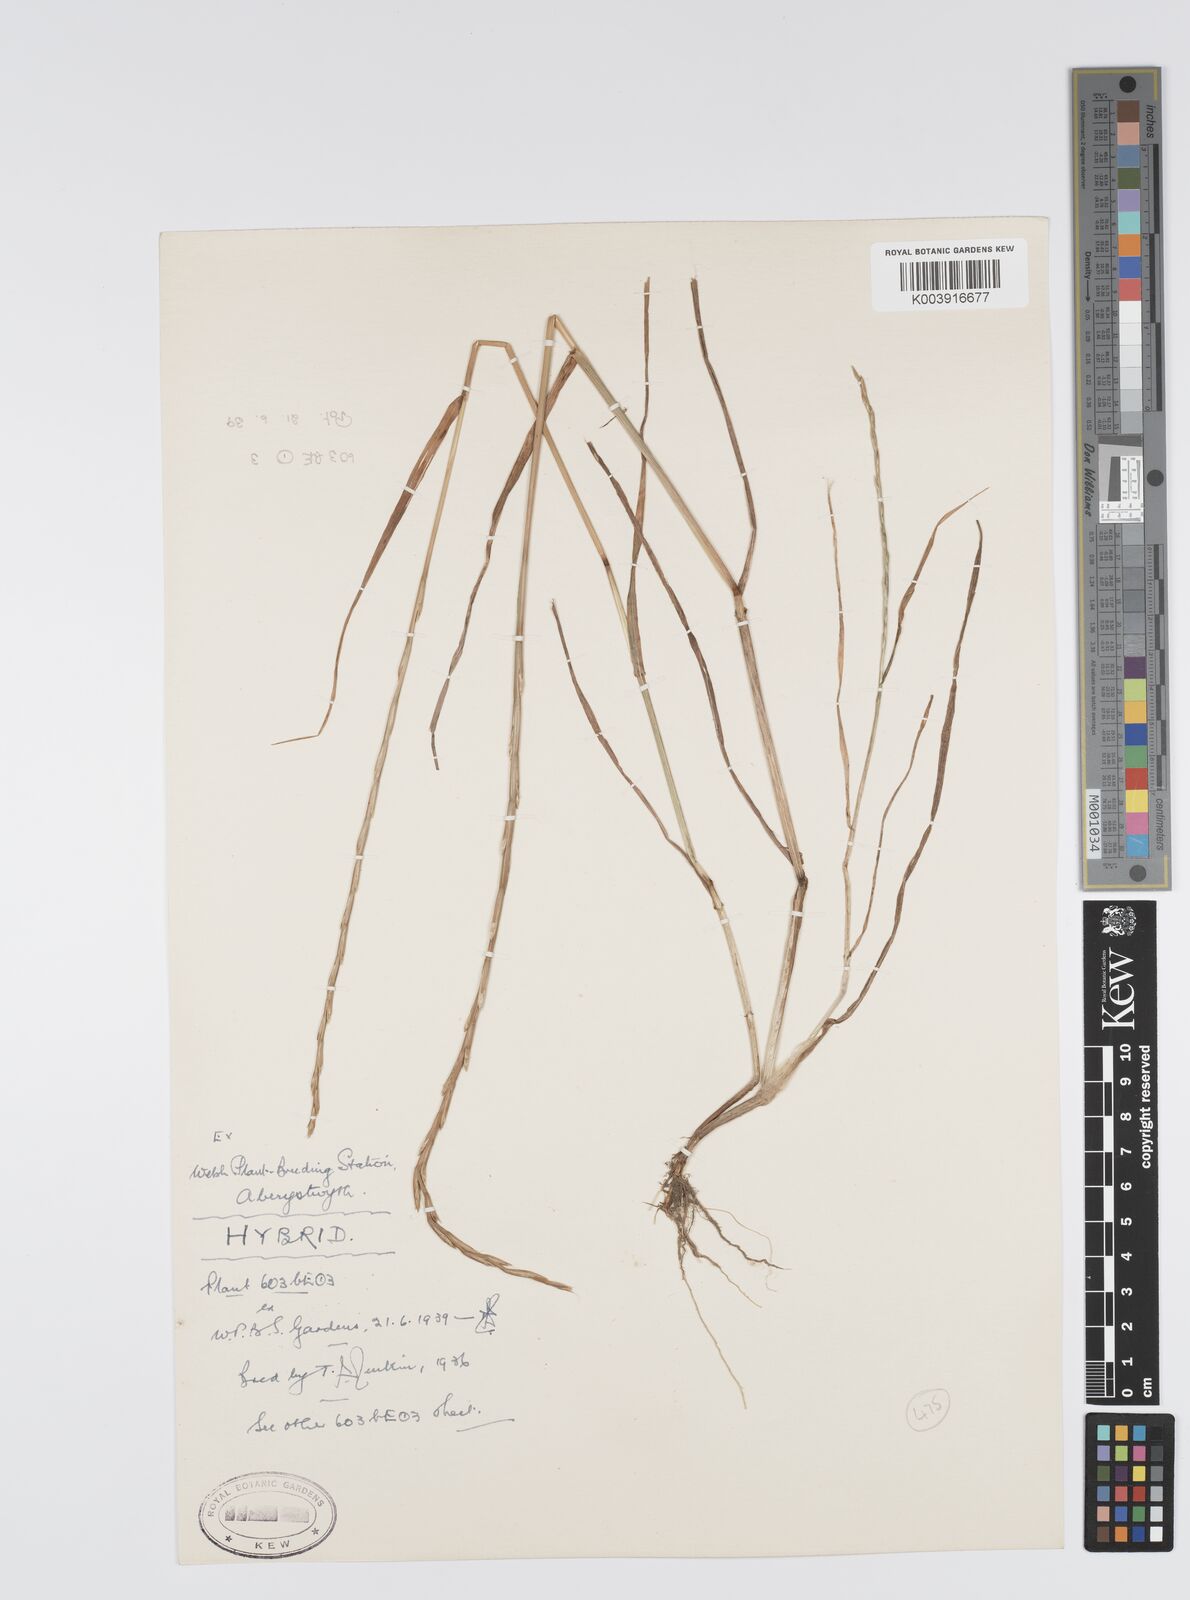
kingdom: Plantae
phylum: Tracheophyta
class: Liliopsida
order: Poales
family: Poaceae
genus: Lolium
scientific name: Lolium perenne
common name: Perennial ryegrass
